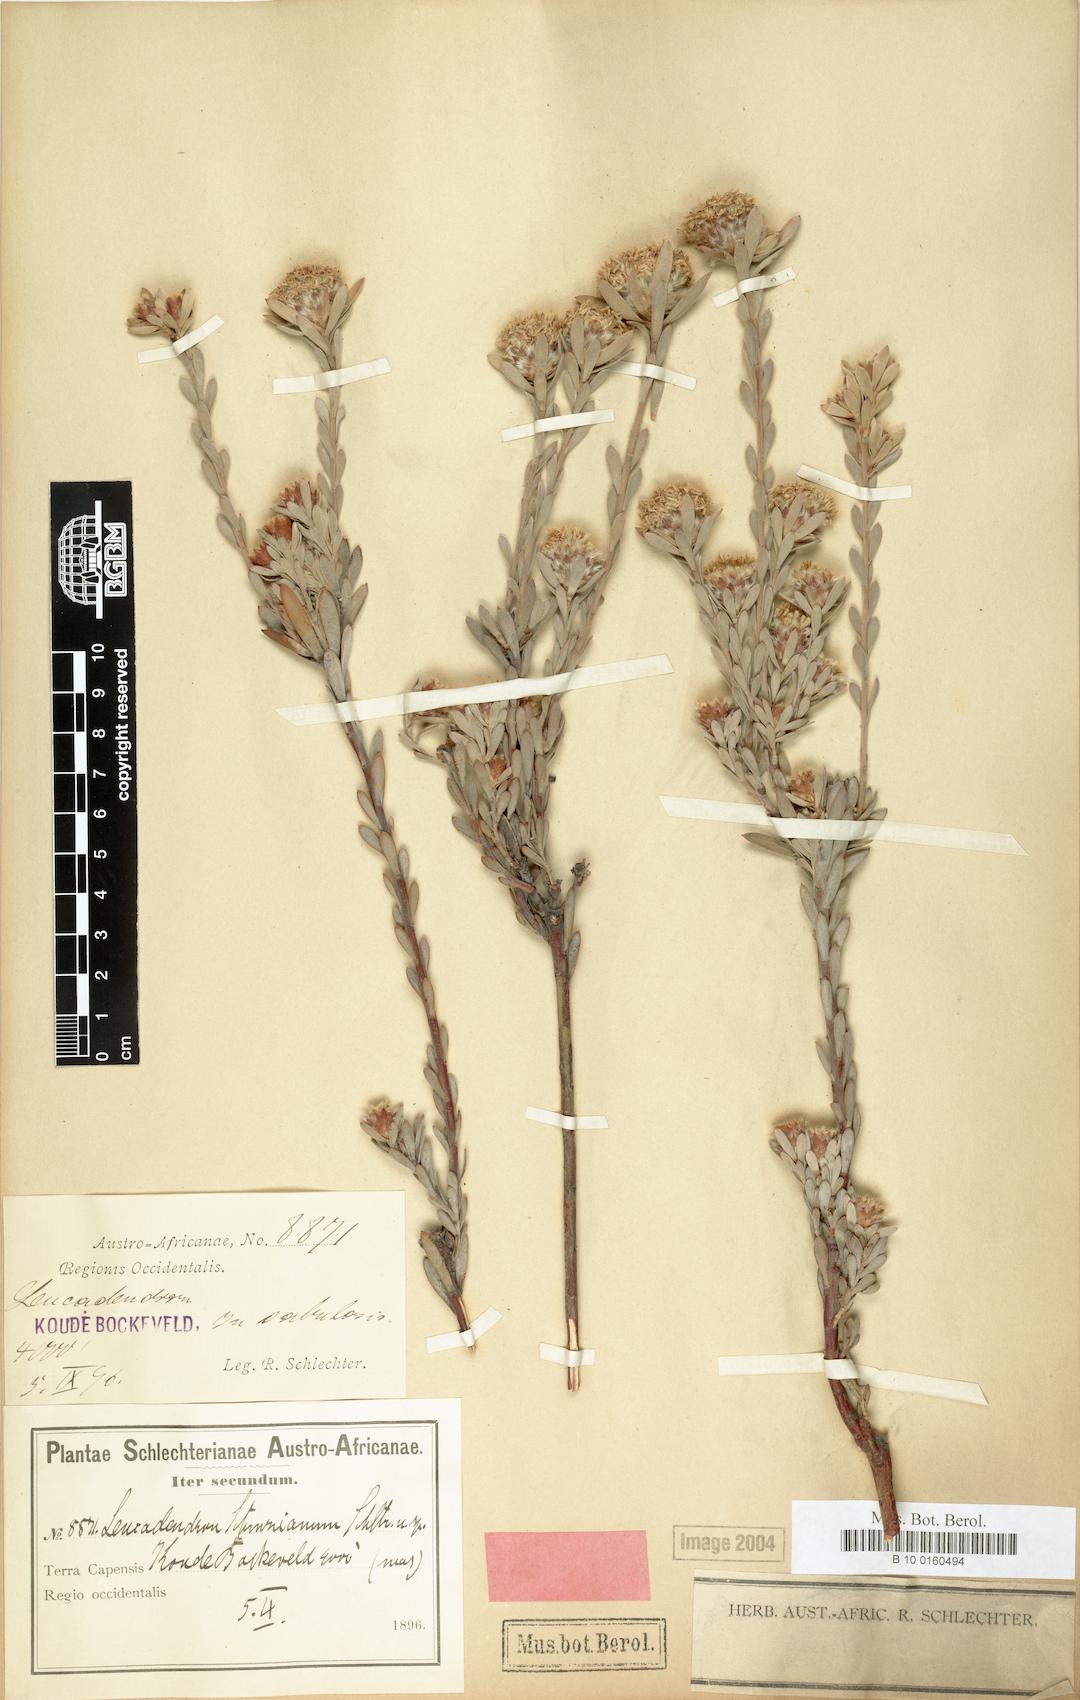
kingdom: Plantae
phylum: Tracheophyta
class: Magnoliopsida
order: Proteales
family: Proteaceae
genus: Leucadendron
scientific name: Leucadendron nitidum
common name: Bokkeveld conebush
